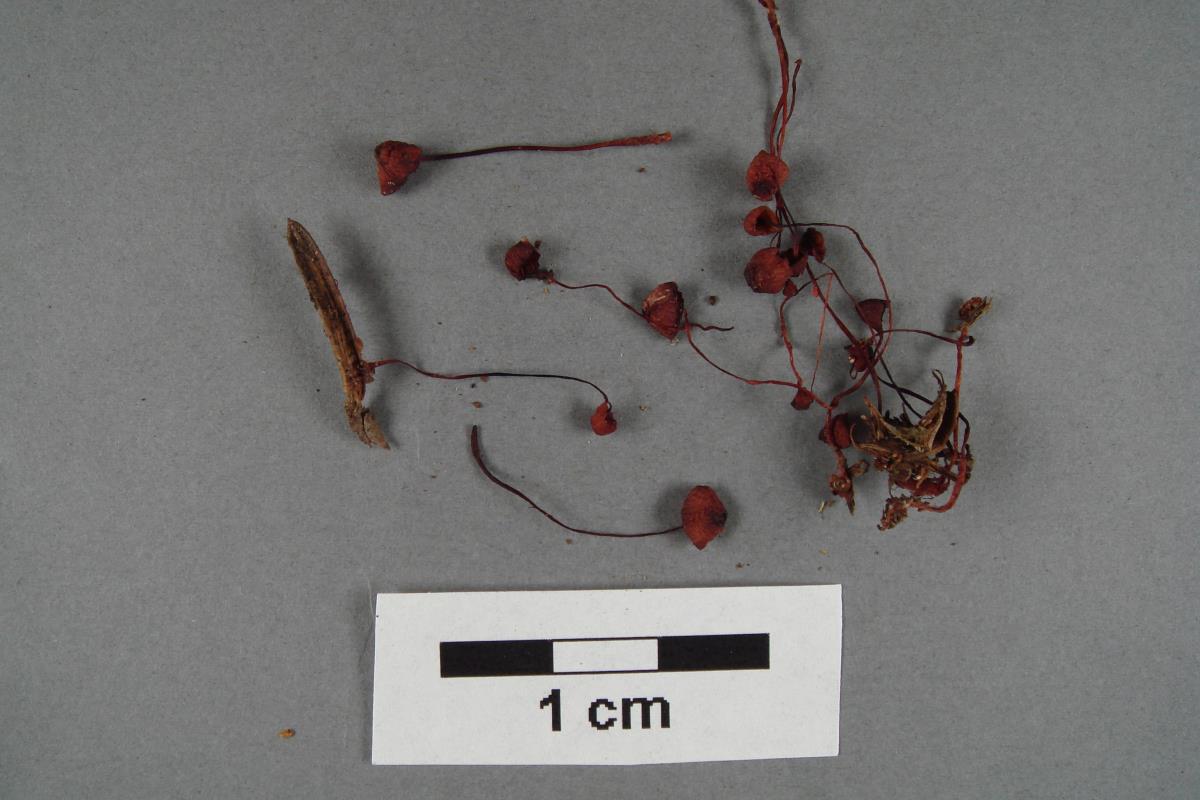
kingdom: Fungi
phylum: Basidiomycota
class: Agaricomycetes
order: Agaricales
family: Mycenaceae
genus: Mycena
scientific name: Mycena ura
